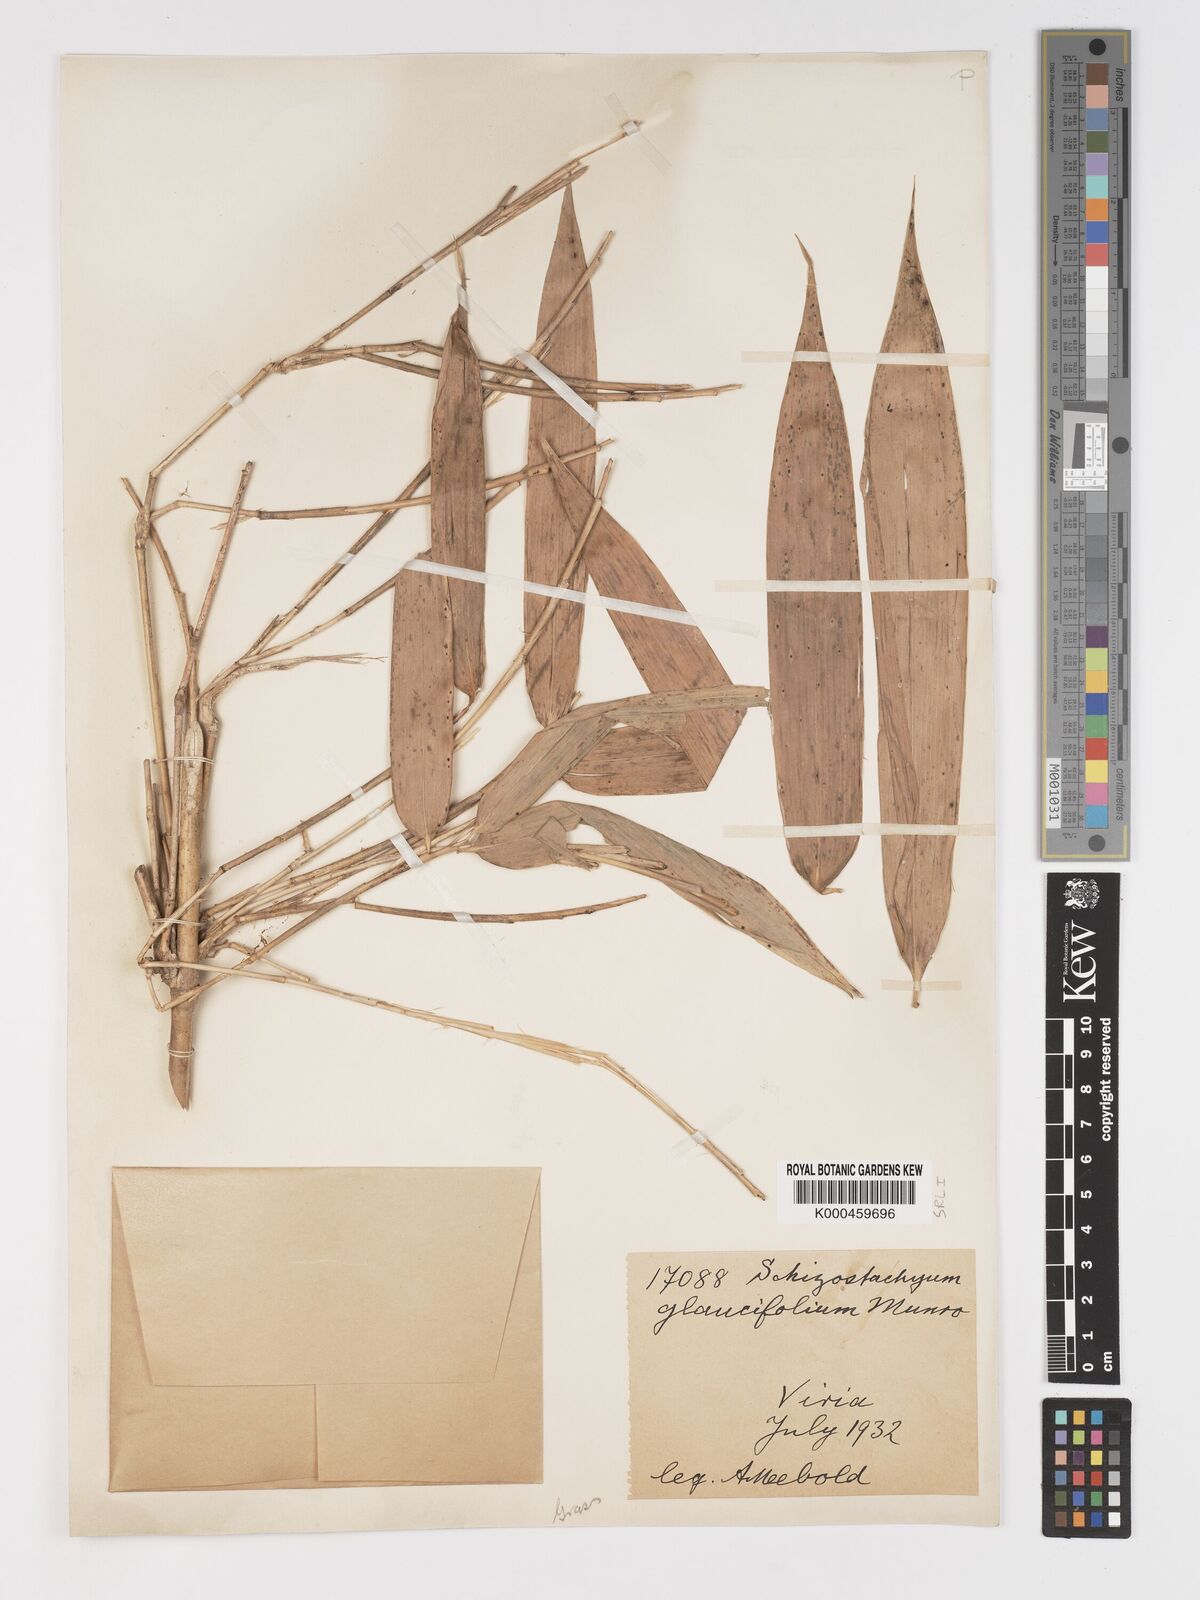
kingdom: Plantae
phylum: Tracheophyta
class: Liliopsida
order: Poales
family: Poaceae
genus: Schizostachyum
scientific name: Schizostachyum glaucifolium
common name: Polynesian 'ohe
